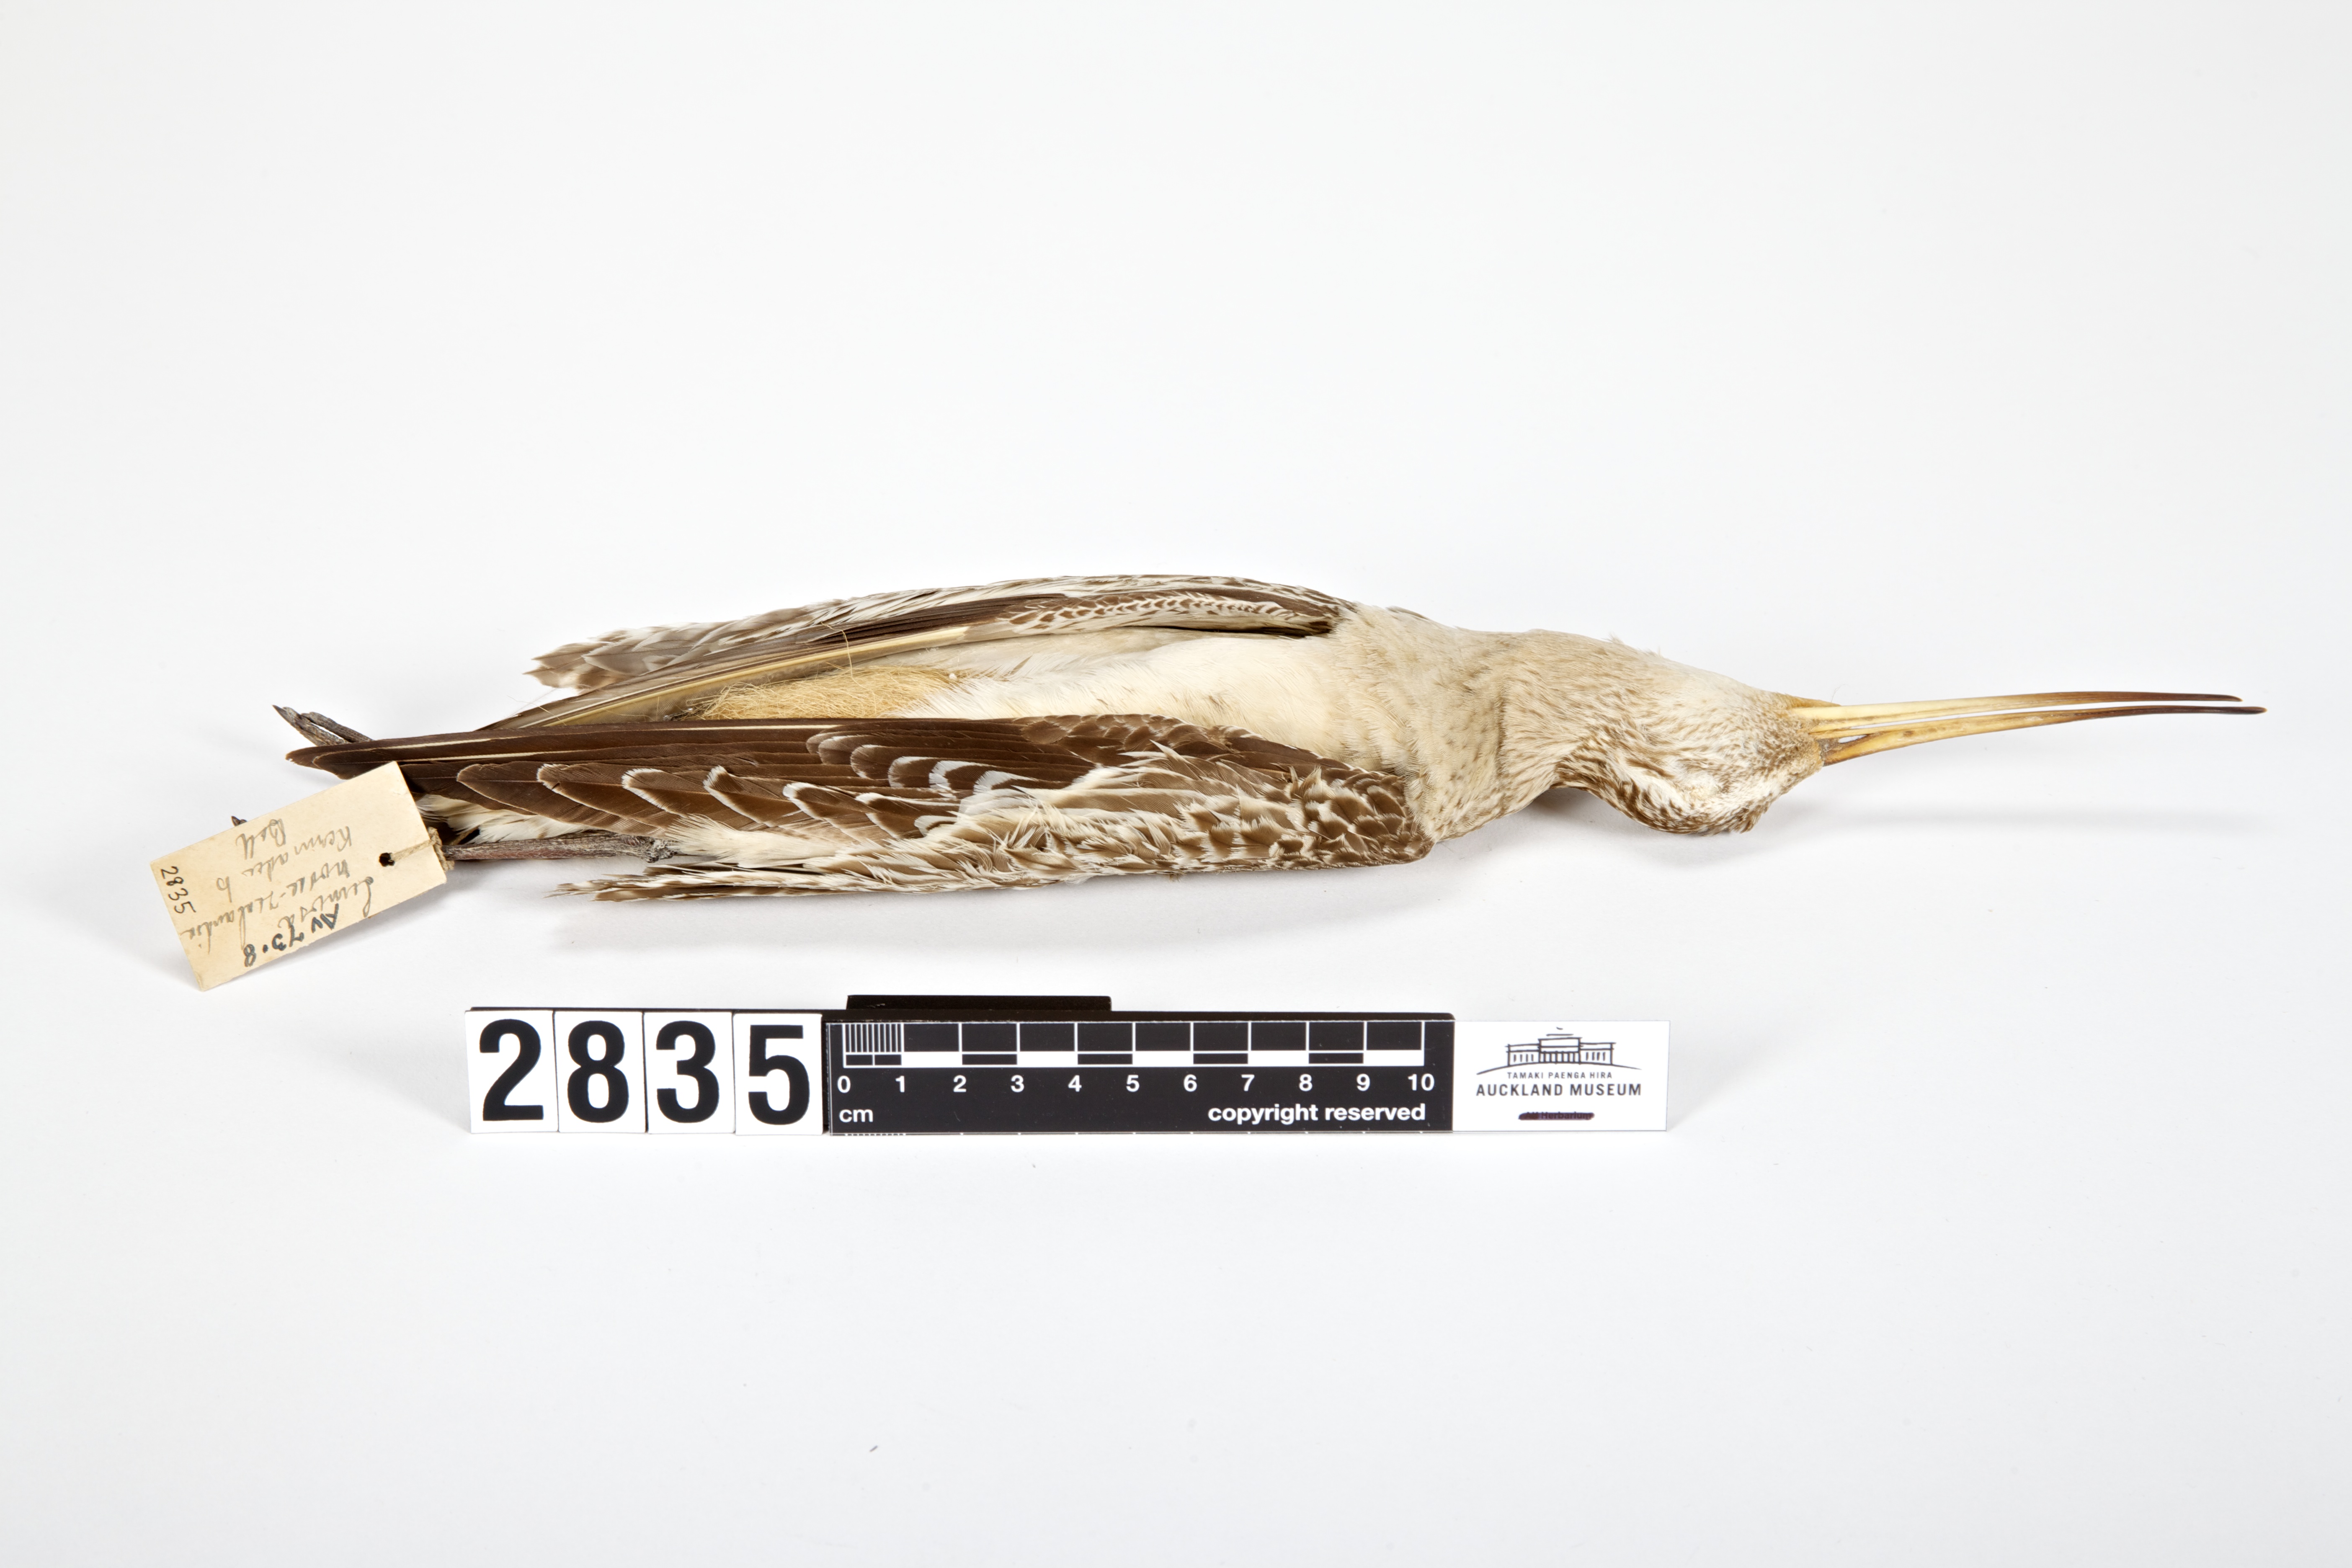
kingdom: Animalia
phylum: Chordata
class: Aves
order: Charadriiformes
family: Scolopacidae
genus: Limosa
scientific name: Limosa lapponica
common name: Bar-tailed godwit
